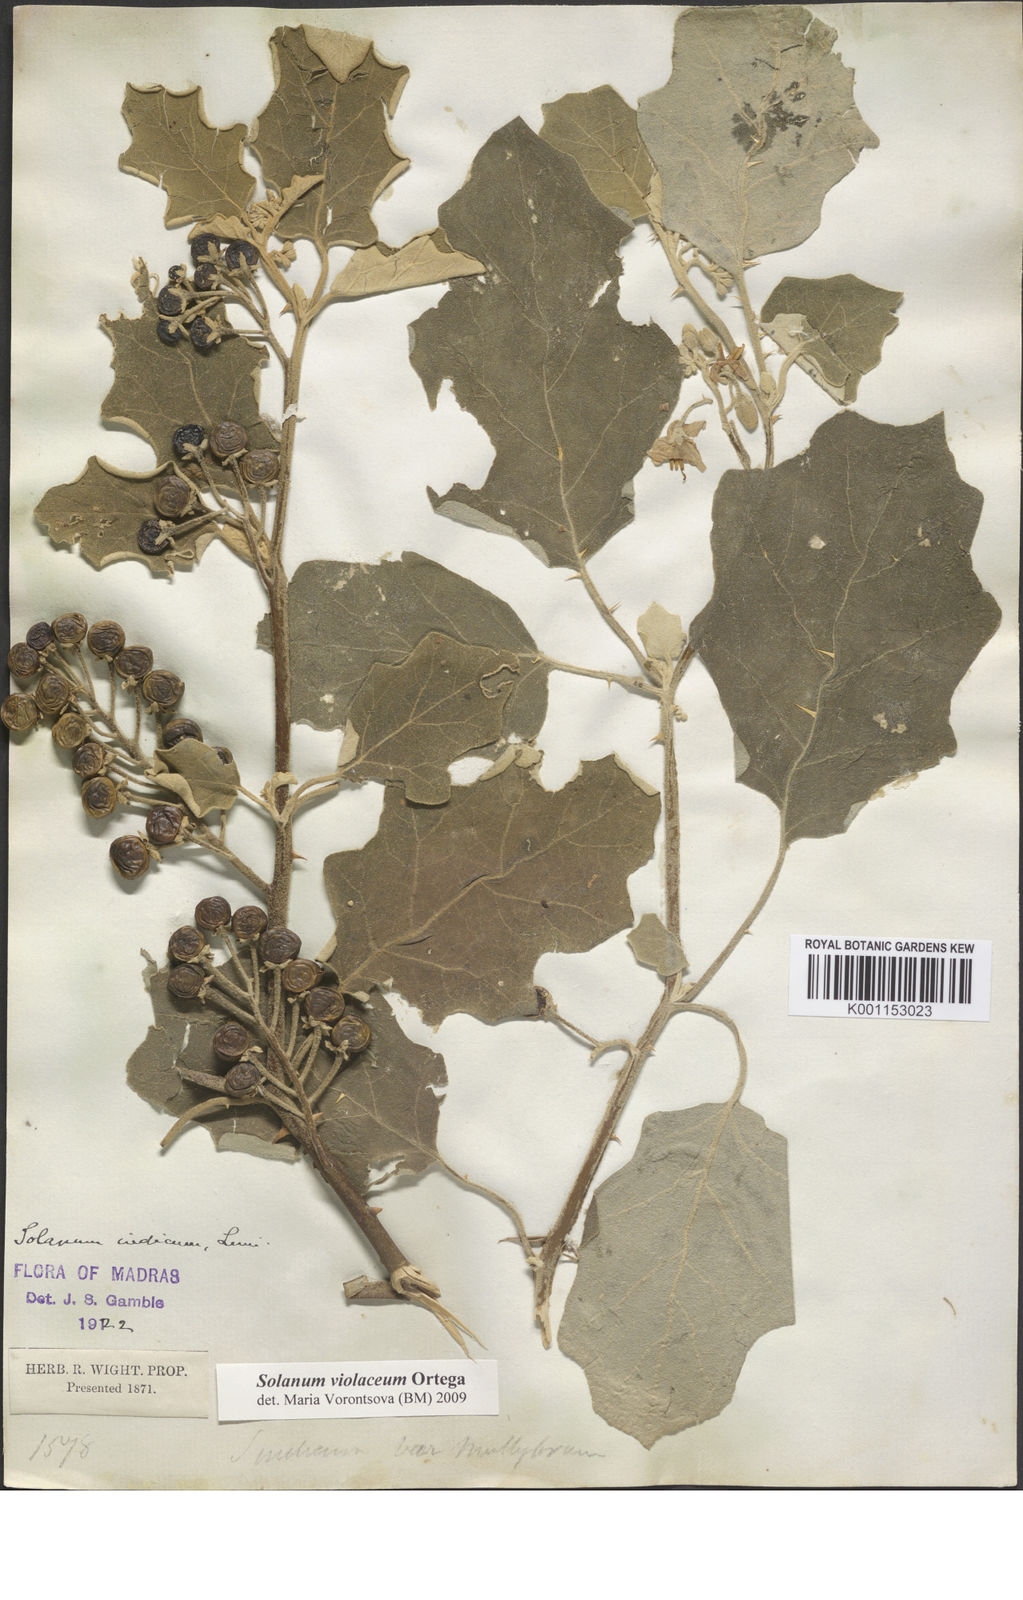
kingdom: Plantae
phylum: Tracheophyta
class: Magnoliopsida
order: Solanales
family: Solanaceae
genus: Solanum
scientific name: Solanum violaceum
